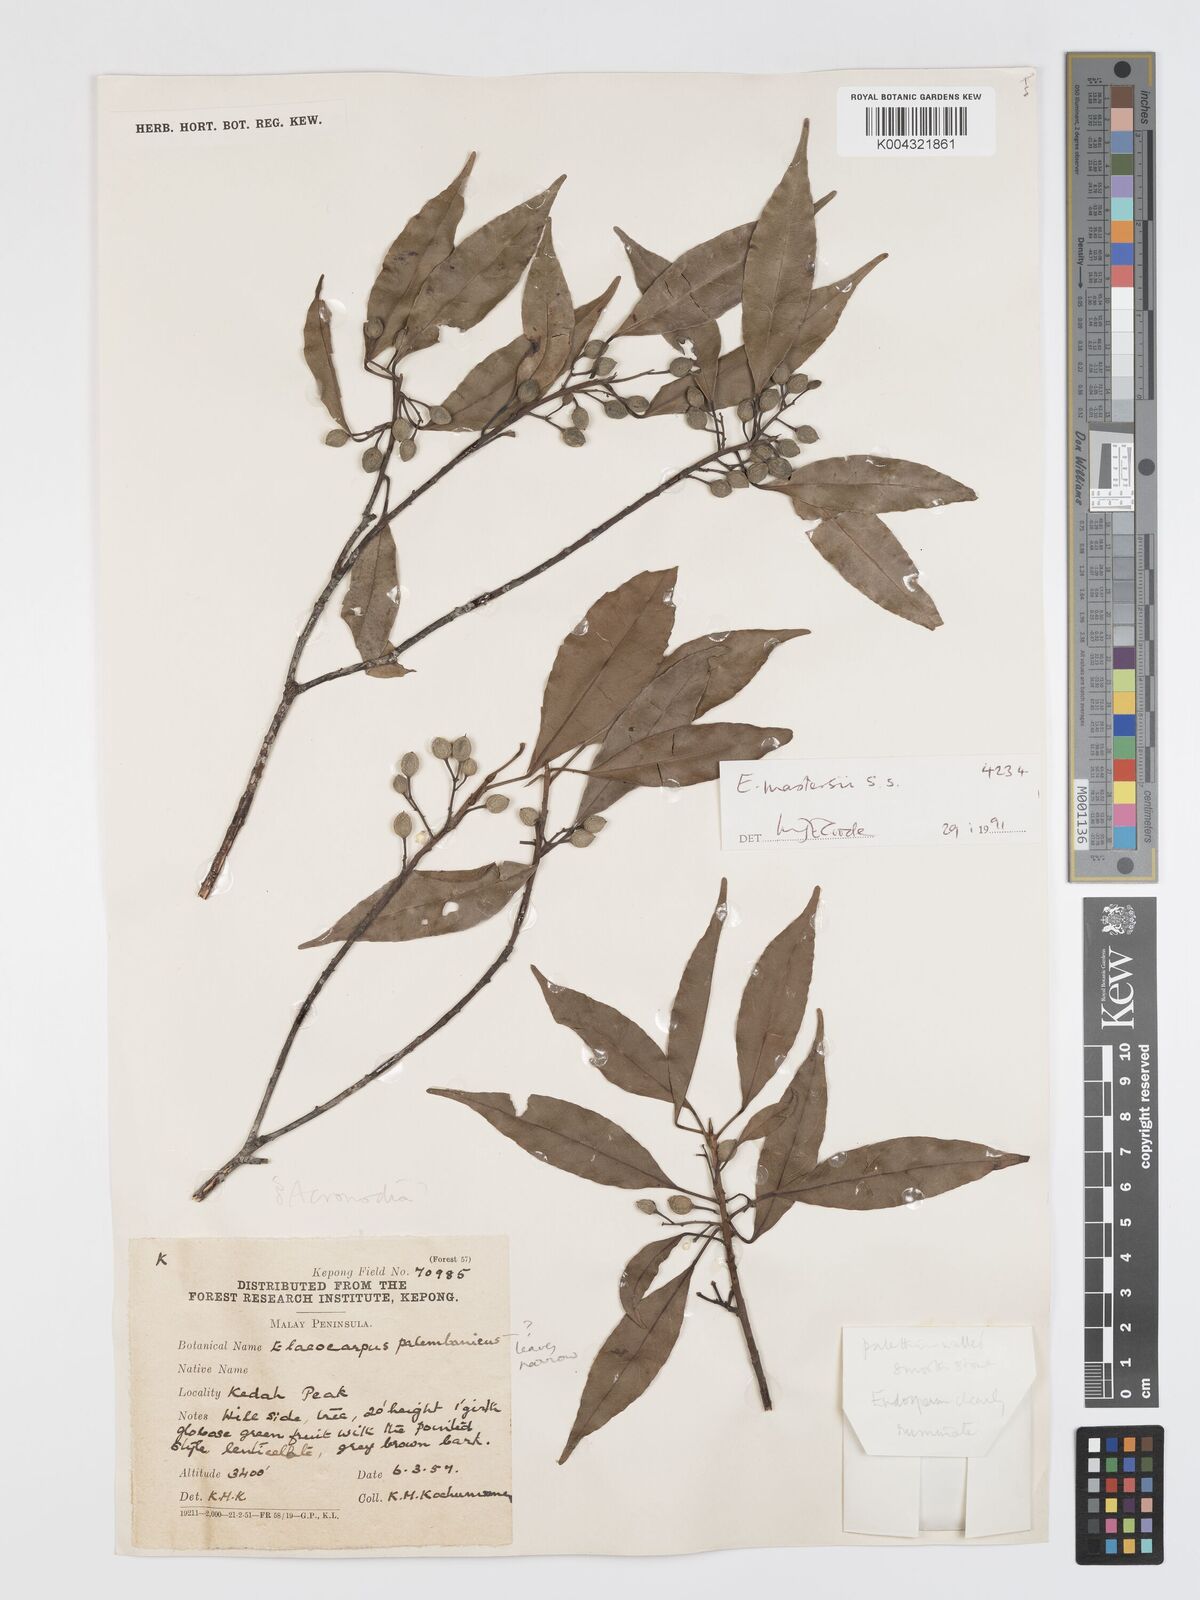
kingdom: Plantae
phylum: Tracheophyta
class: Magnoliopsida
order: Oxalidales
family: Elaeocarpaceae
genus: Elaeocarpus
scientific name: Elaeocarpus mastersii
